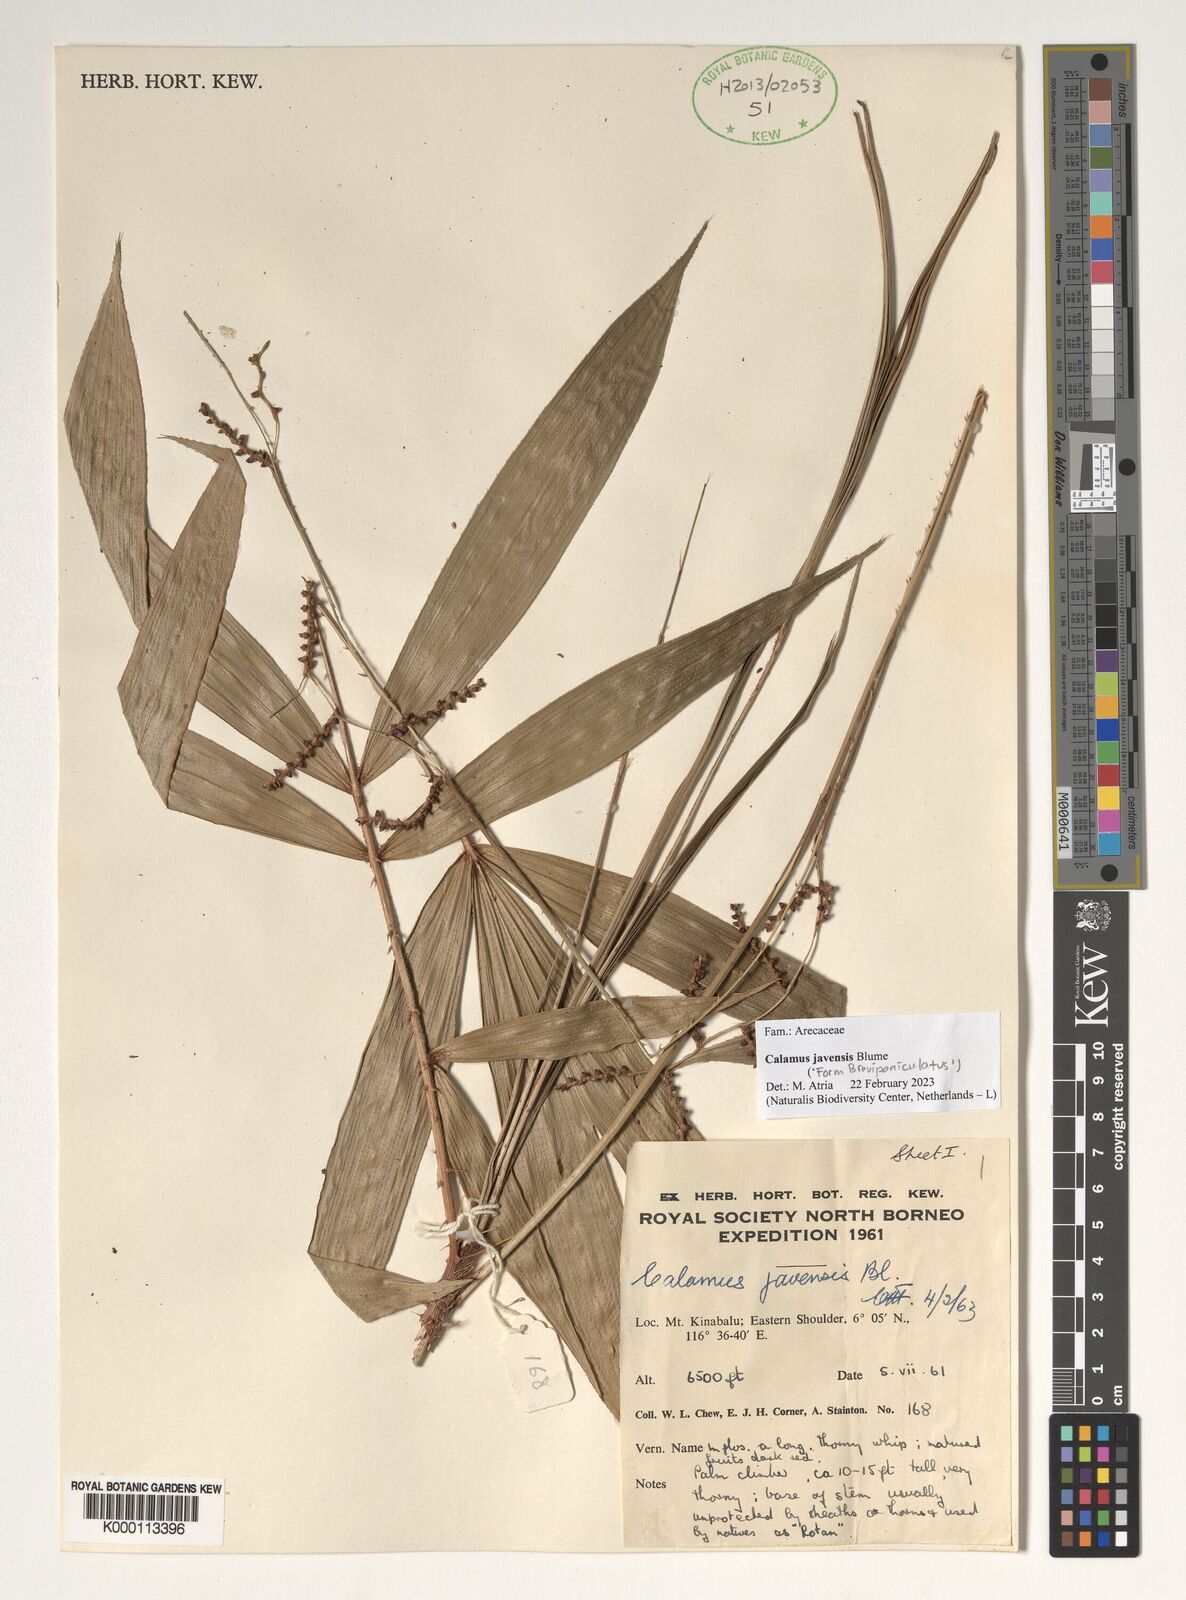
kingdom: Plantae
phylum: Tracheophyta
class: Liliopsida
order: Arecales
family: Arecaceae
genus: Calamus
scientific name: Calamus javensis
